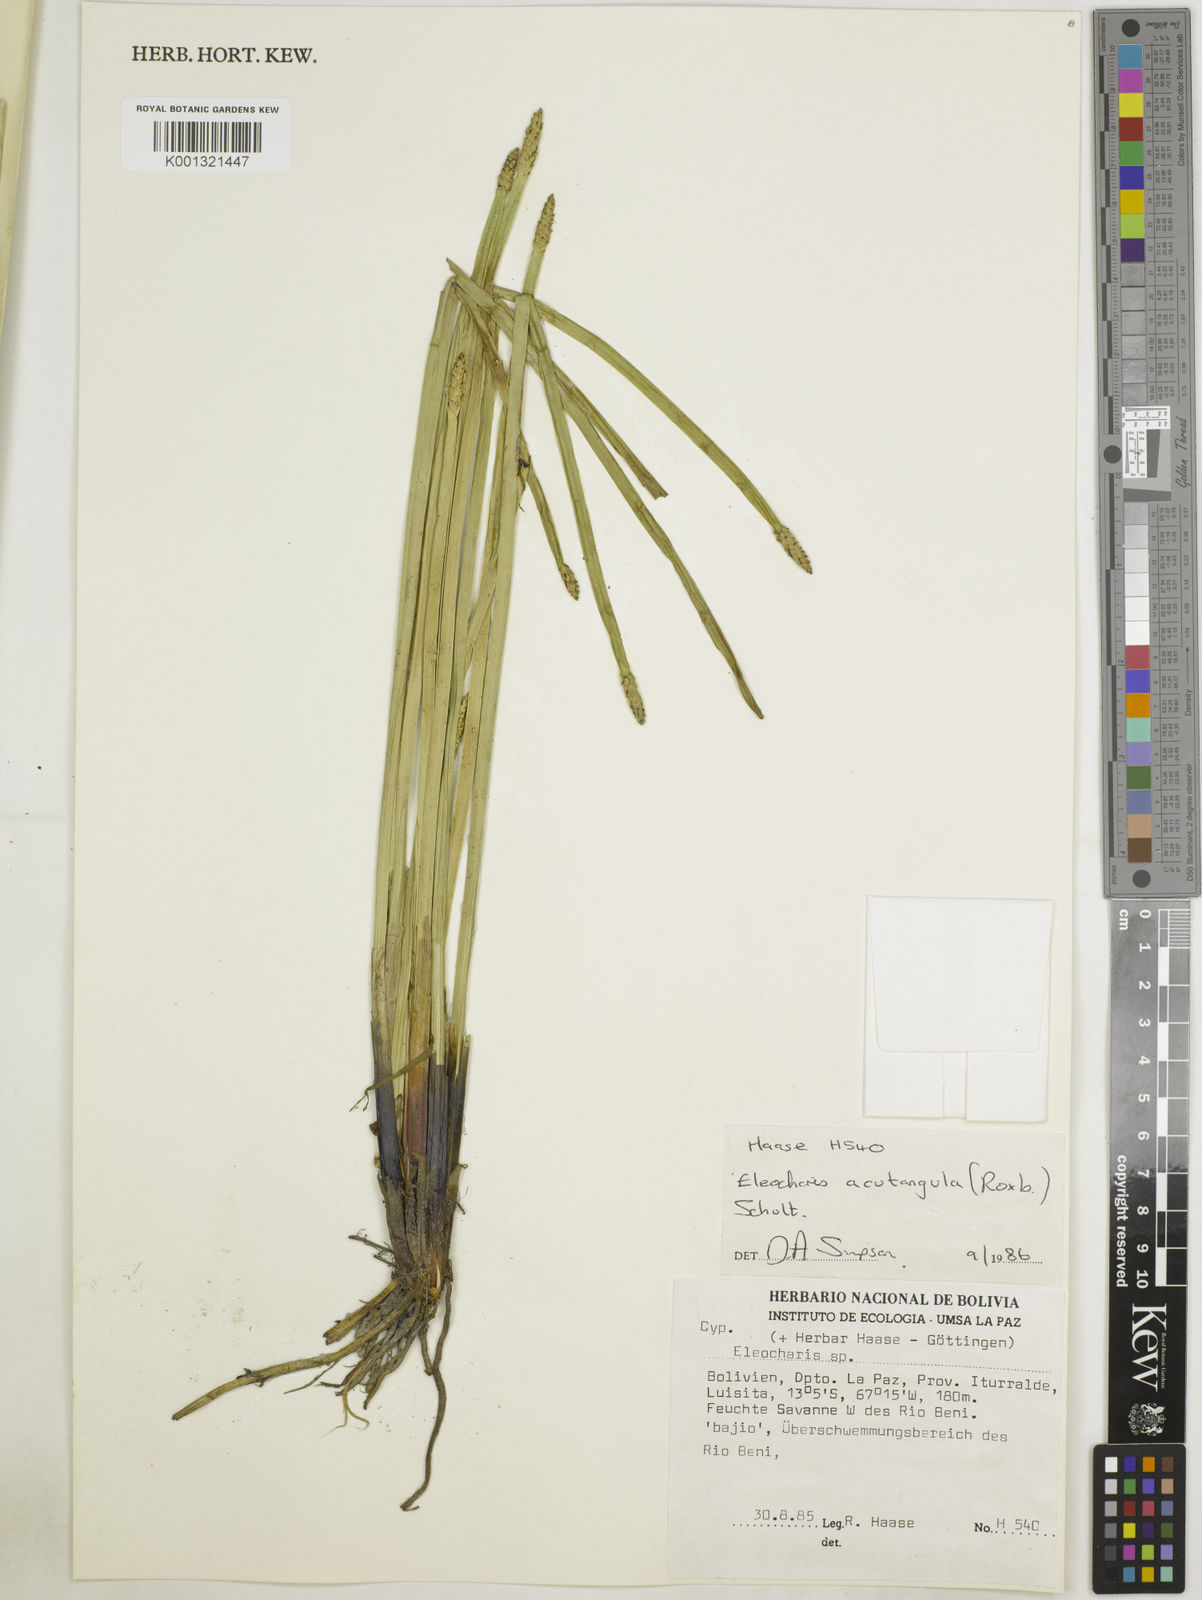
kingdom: Plantae
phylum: Tracheophyta
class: Liliopsida
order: Poales
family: Cyperaceae
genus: Eleocharis
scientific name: Eleocharis acutangula
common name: Acute spikerush
